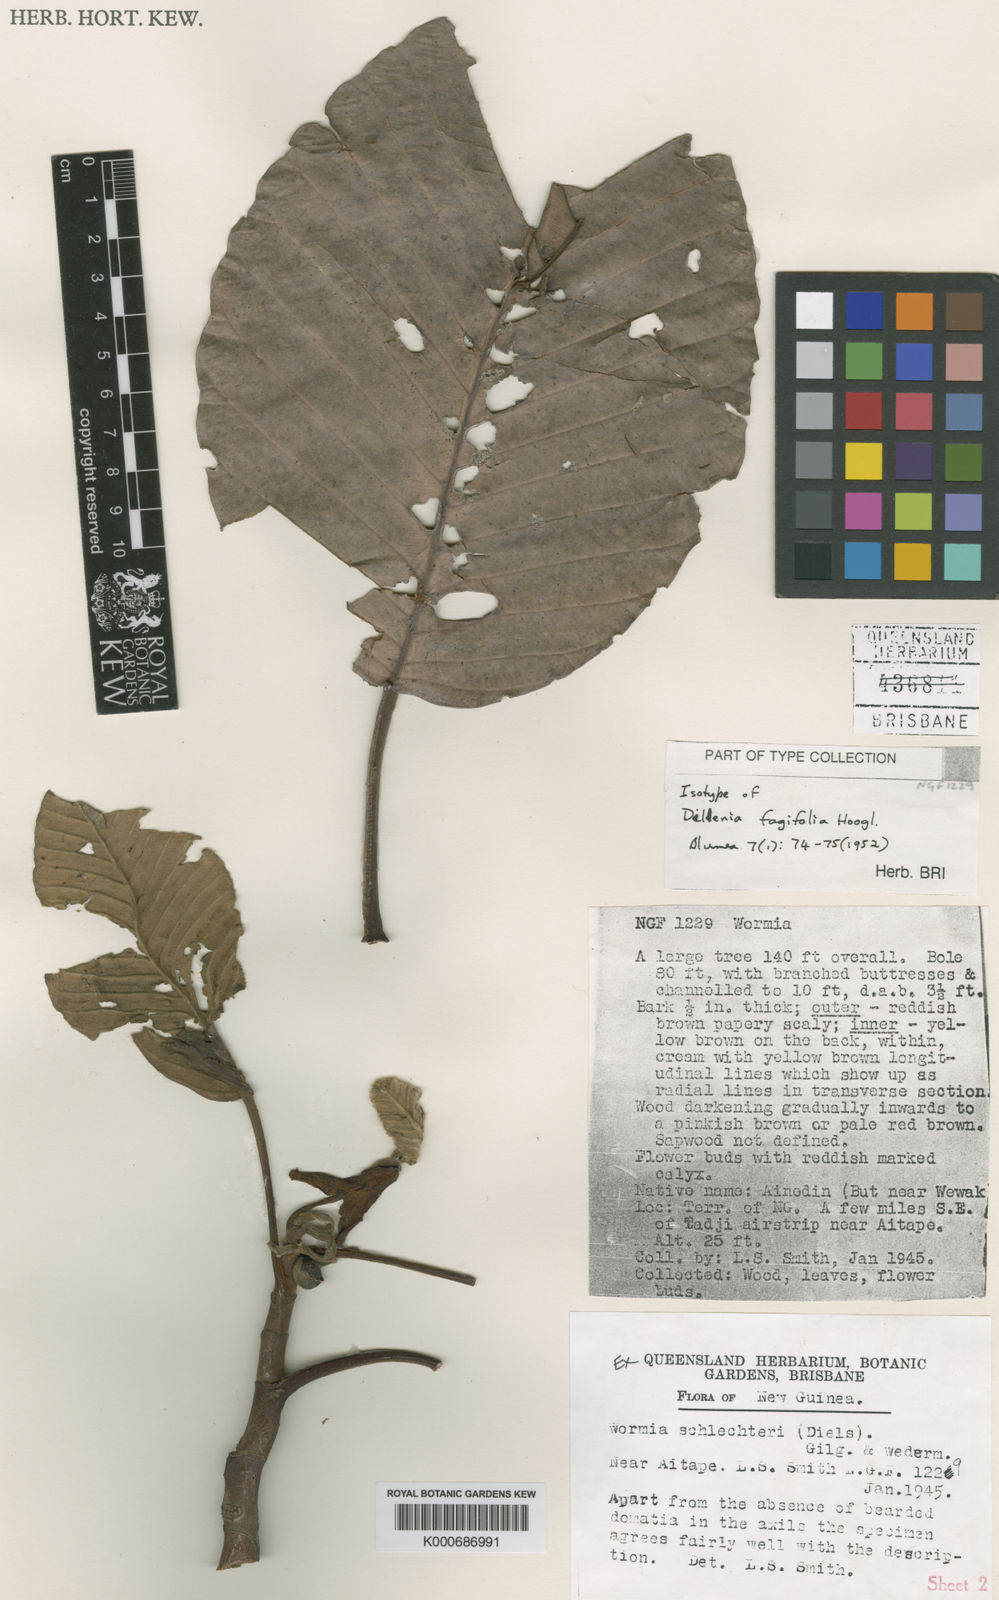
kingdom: Plantae
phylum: Tracheophyta
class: Magnoliopsida
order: Dilleniales
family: Dilleniaceae
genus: Dillenia
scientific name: Dillenia fagifolia
